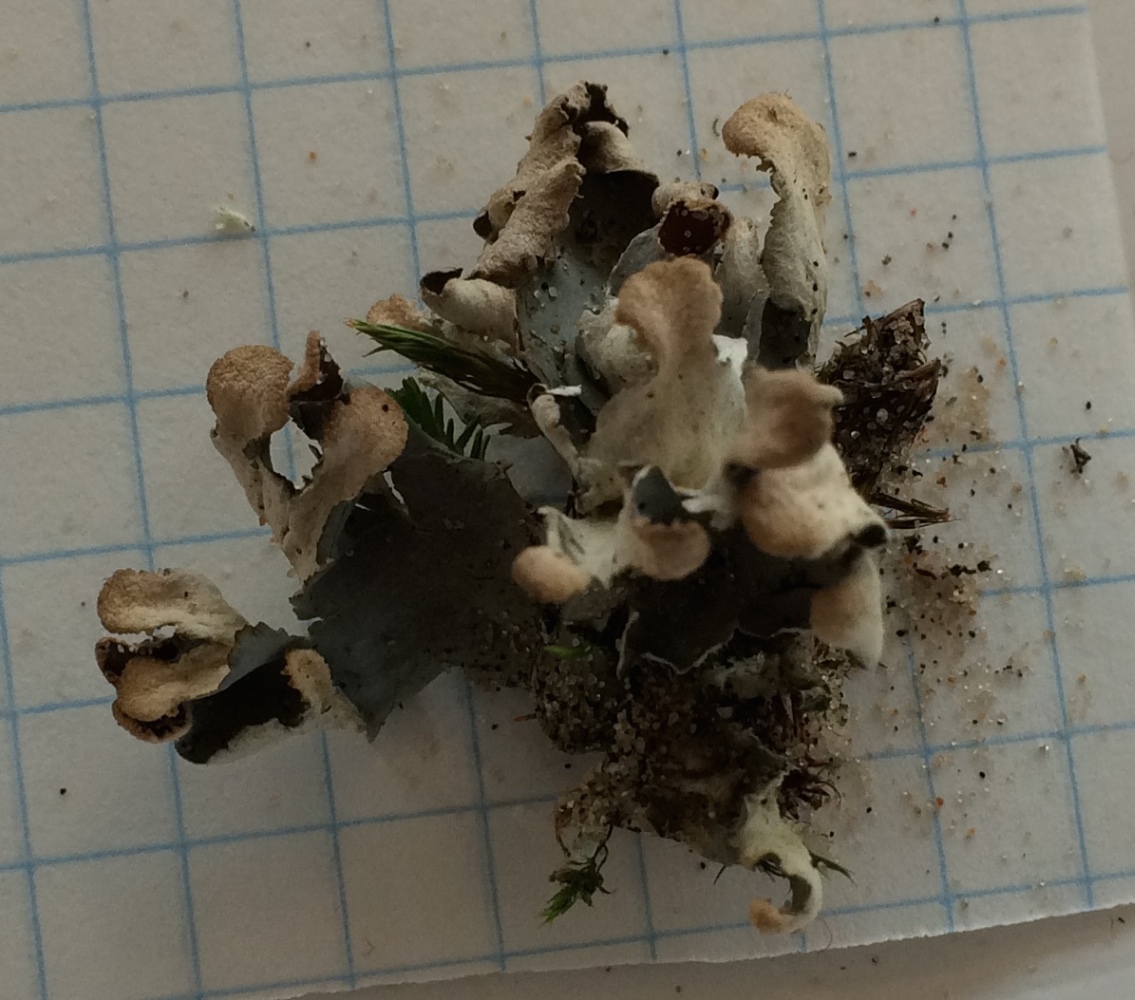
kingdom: Fungi
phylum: Ascomycota
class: Lecanoromycetes
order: Peltigerales
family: Peltigeraceae
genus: Peltigera
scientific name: Peltigera hymenina
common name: hinde-skjoldlav
